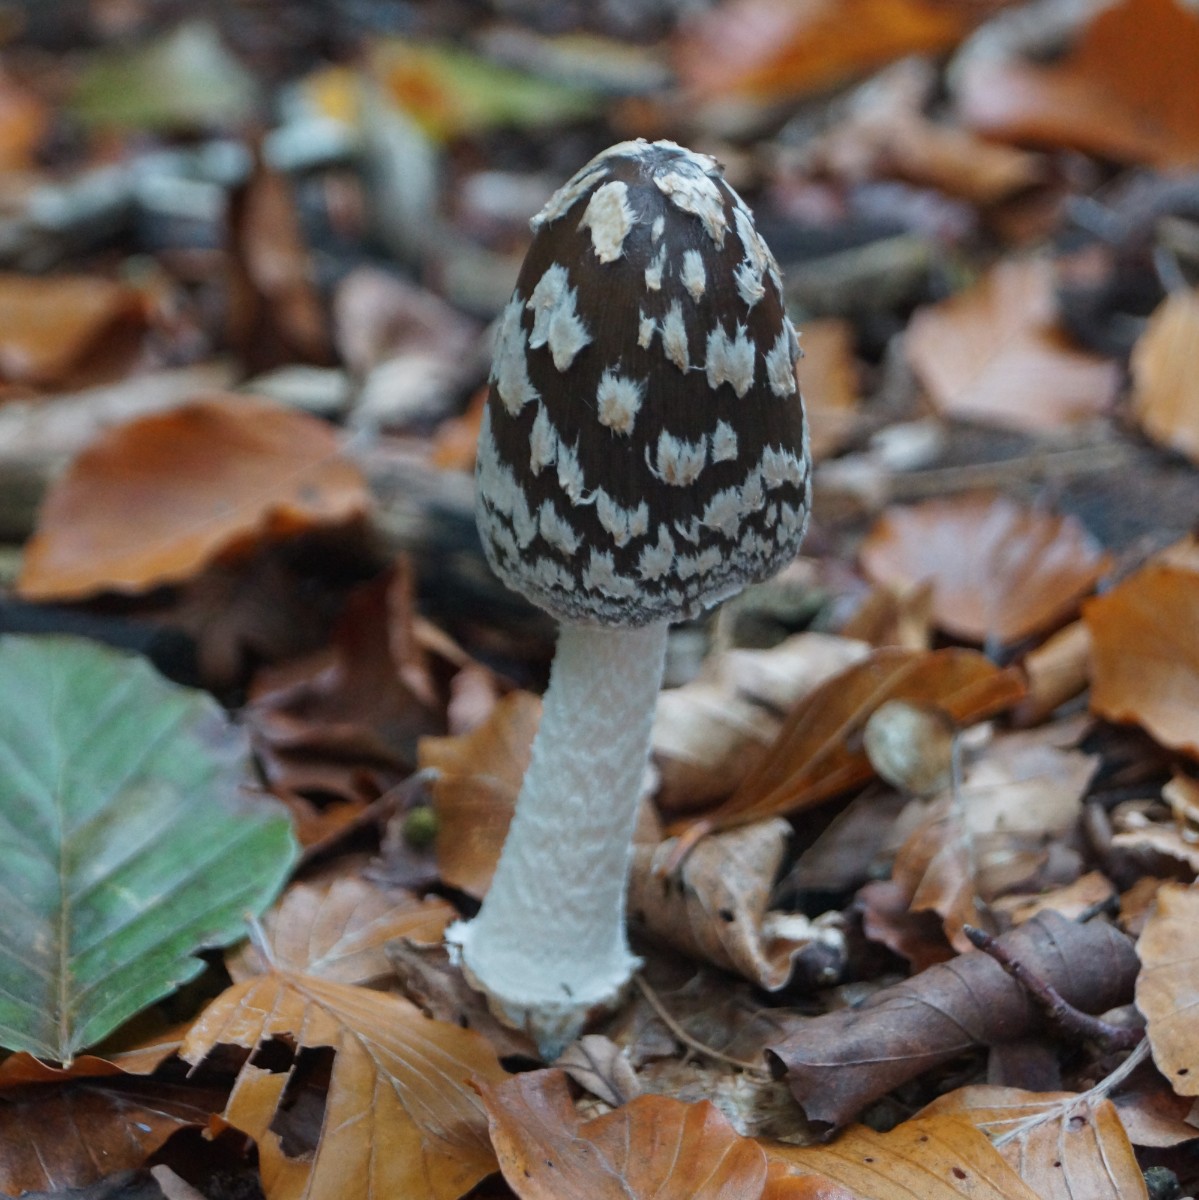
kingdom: Fungi
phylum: Basidiomycota
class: Agaricomycetes
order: Agaricales
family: Psathyrellaceae
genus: Coprinopsis
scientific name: Coprinopsis picacea
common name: skade-blækhat
